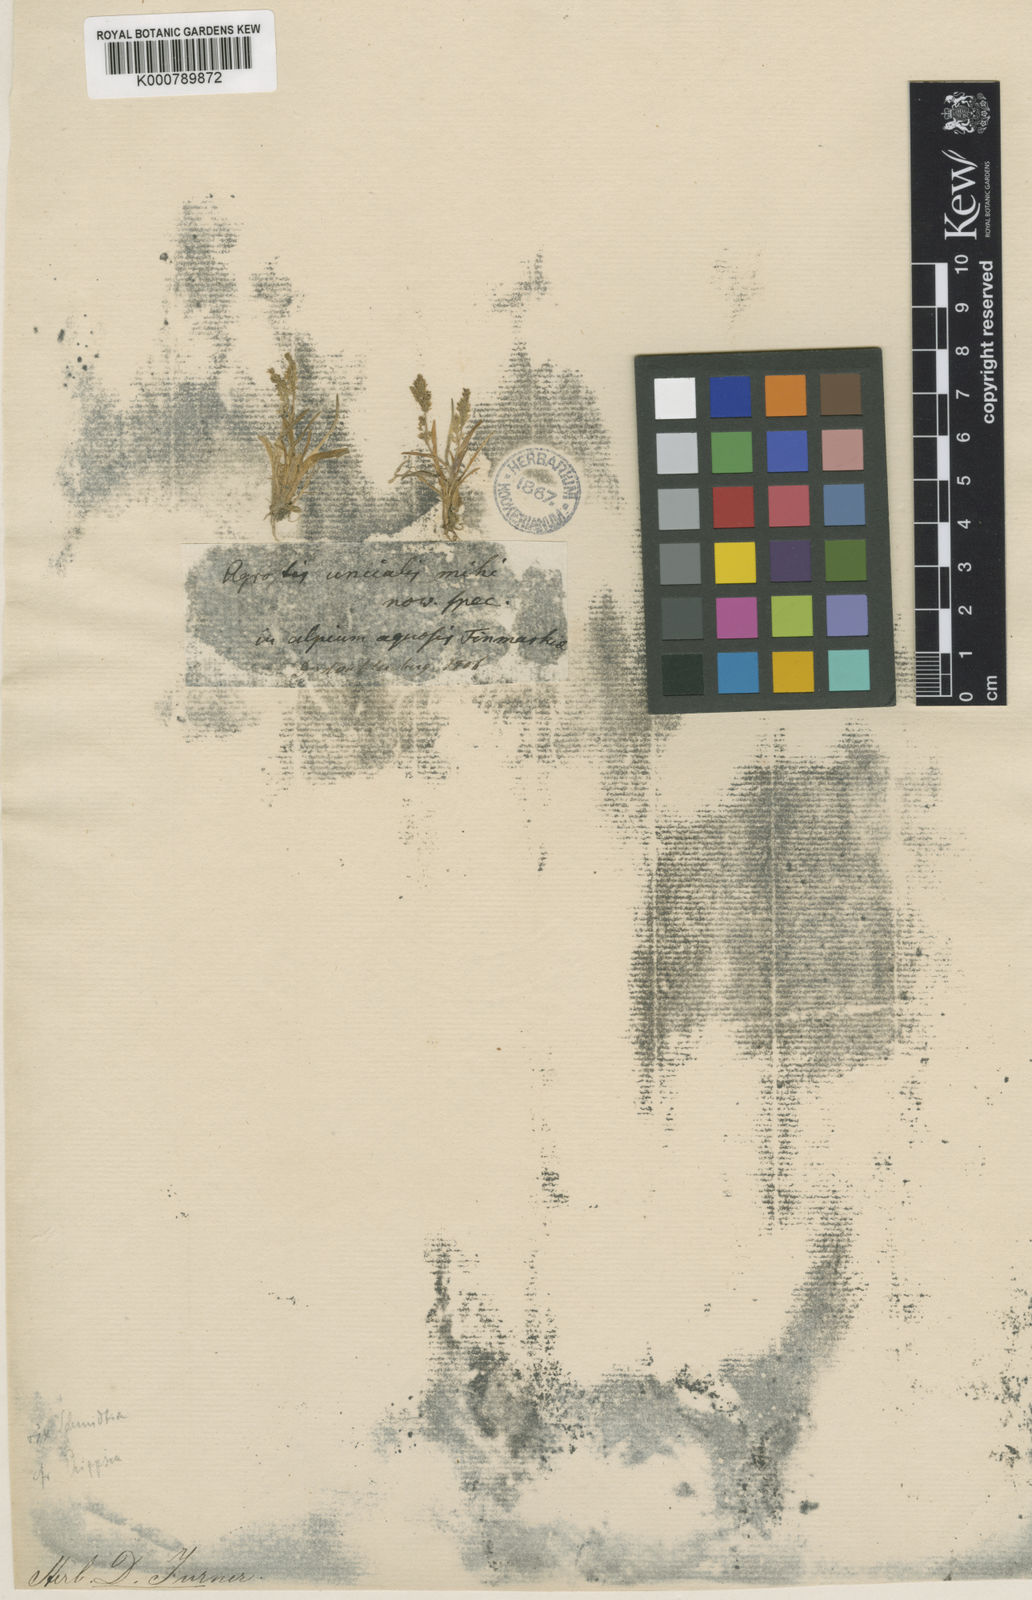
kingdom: Plantae
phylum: Tracheophyta
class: Liliopsida
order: Poales
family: Poaceae
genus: Coleanthus
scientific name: Coleanthus
